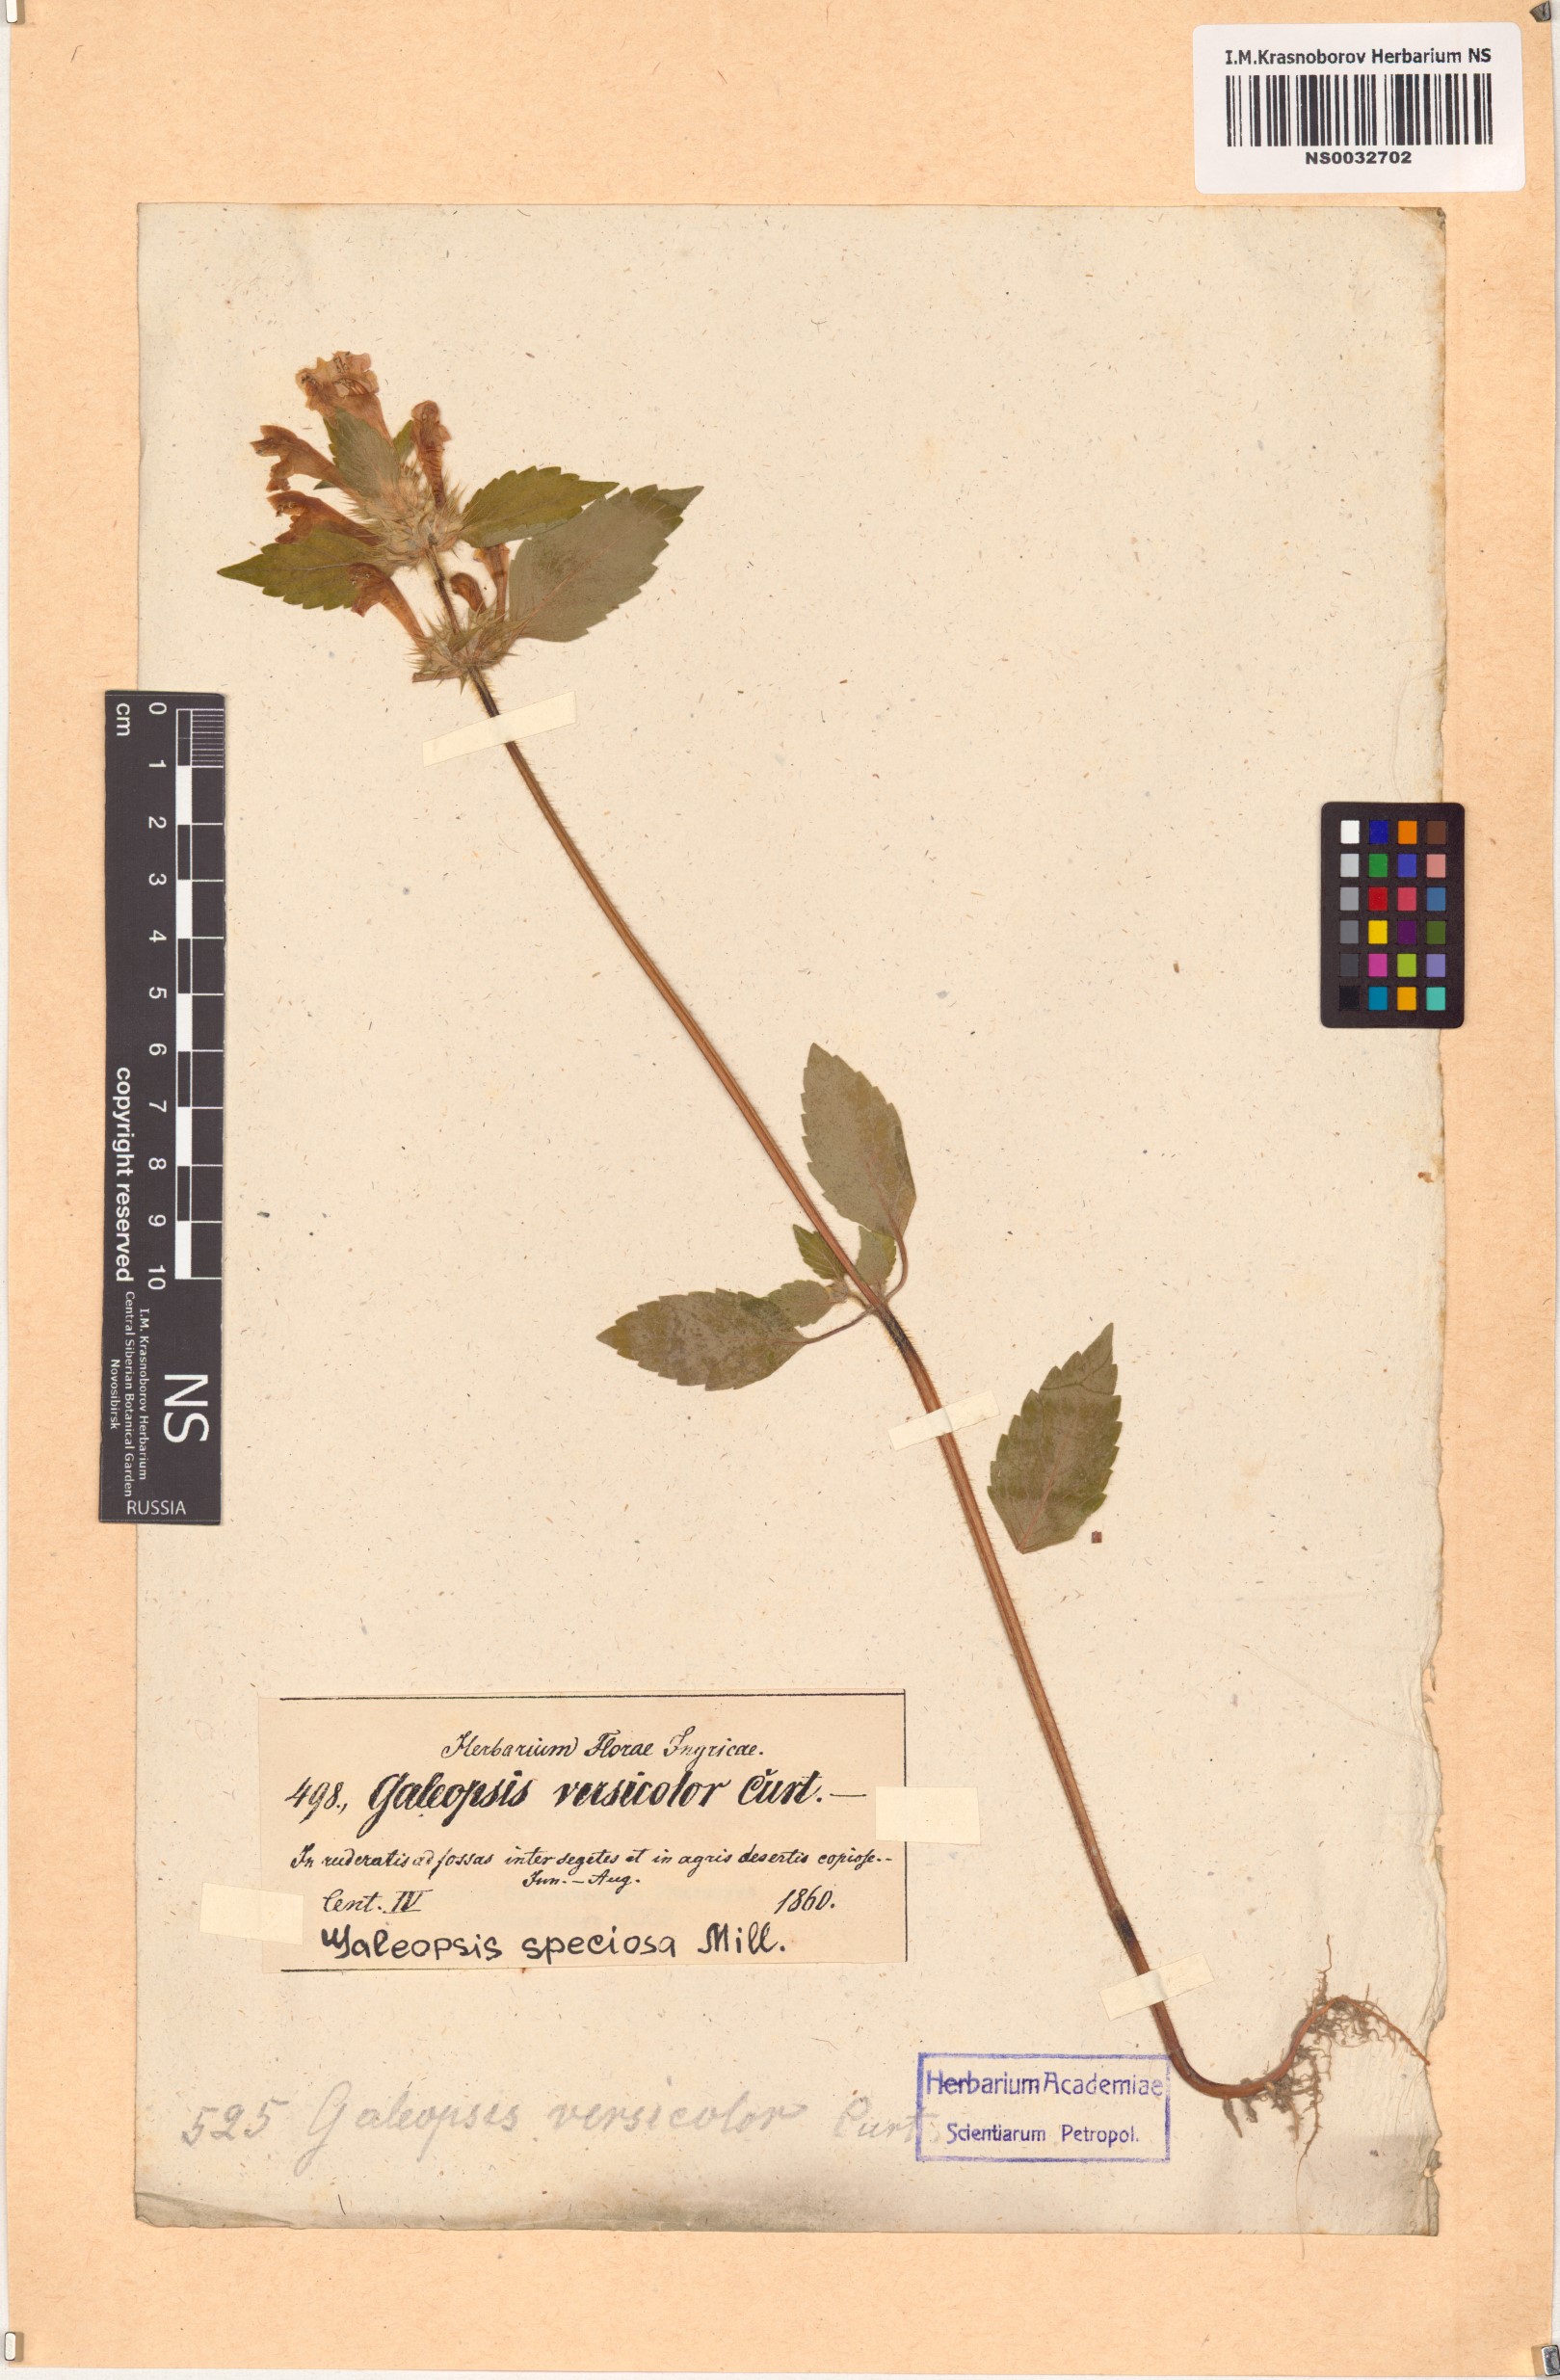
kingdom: Plantae
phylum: Tracheophyta
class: Magnoliopsida
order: Lamiales
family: Lamiaceae
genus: Galeopsis
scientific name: Galeopsis speciosa
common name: Large-flowered hemp-nettle
